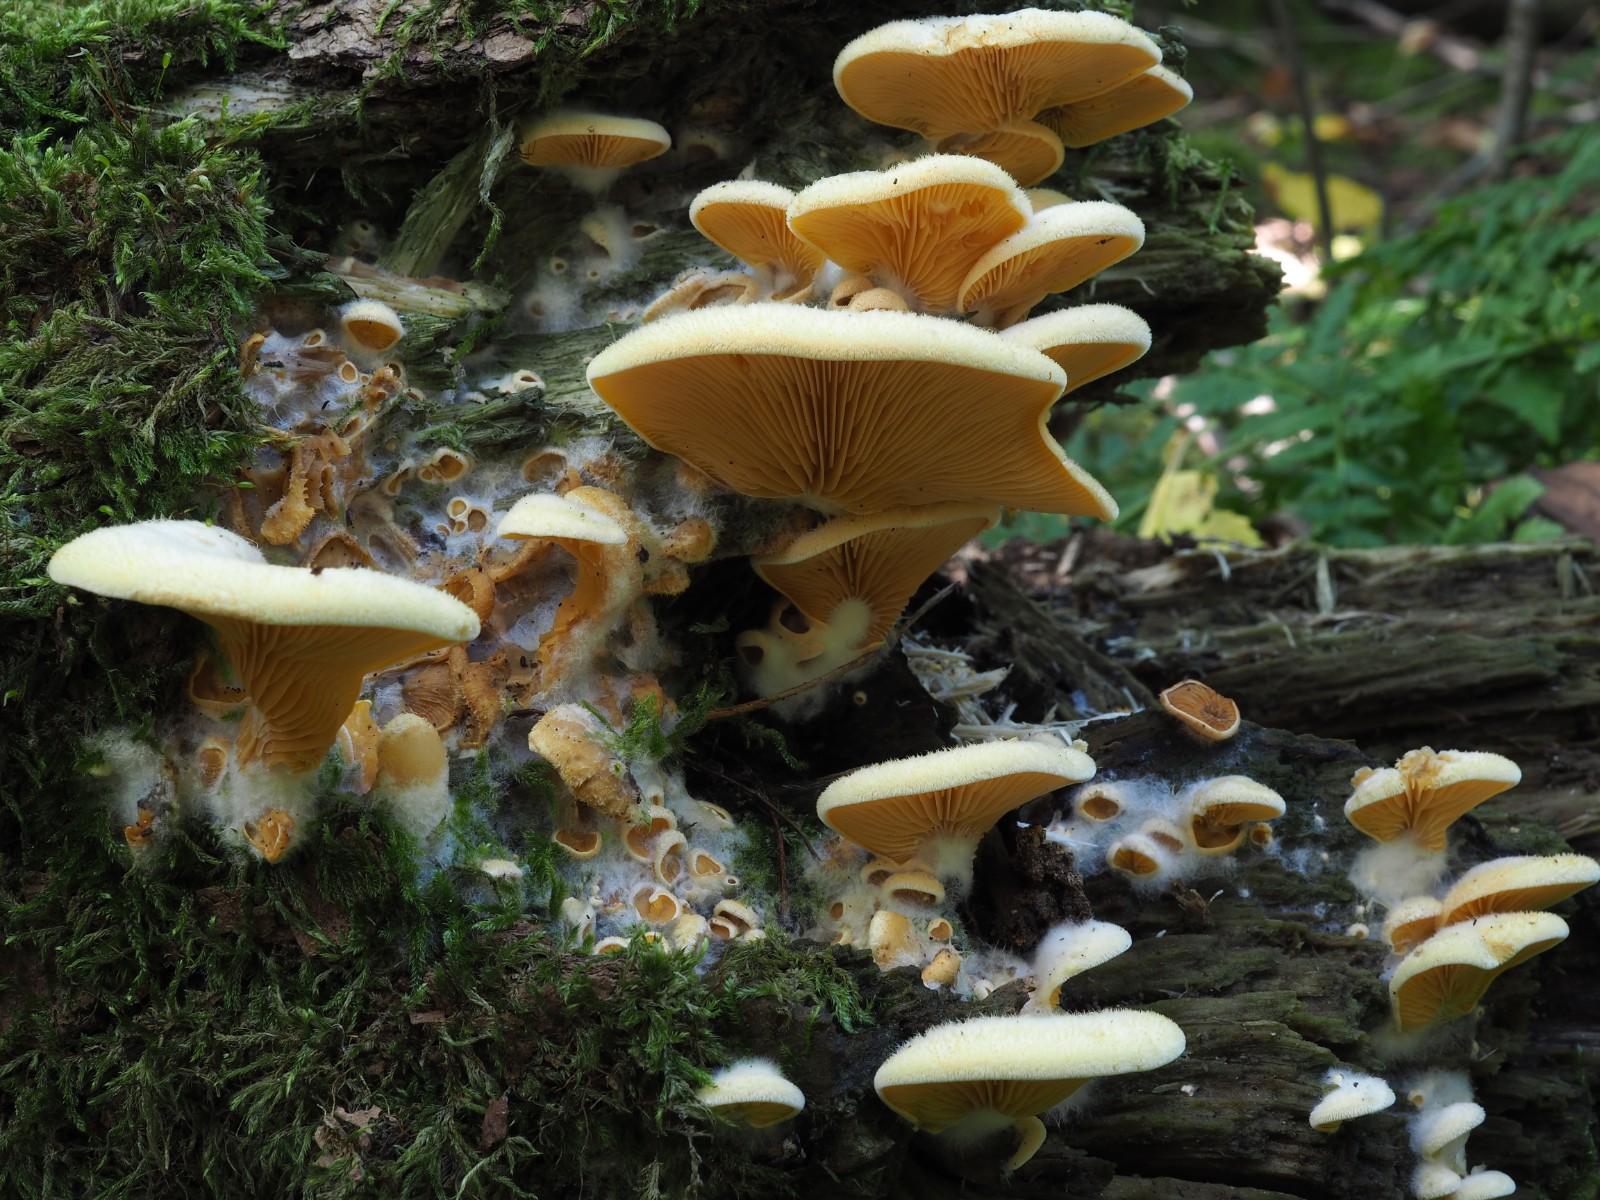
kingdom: Fungi
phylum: Basidiomycota
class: Agaricomycetes
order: Agaricales
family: Phyllotopsidaceae
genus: Phyllotopsis
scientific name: Phyllotopsis nidulans
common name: okkerblad
